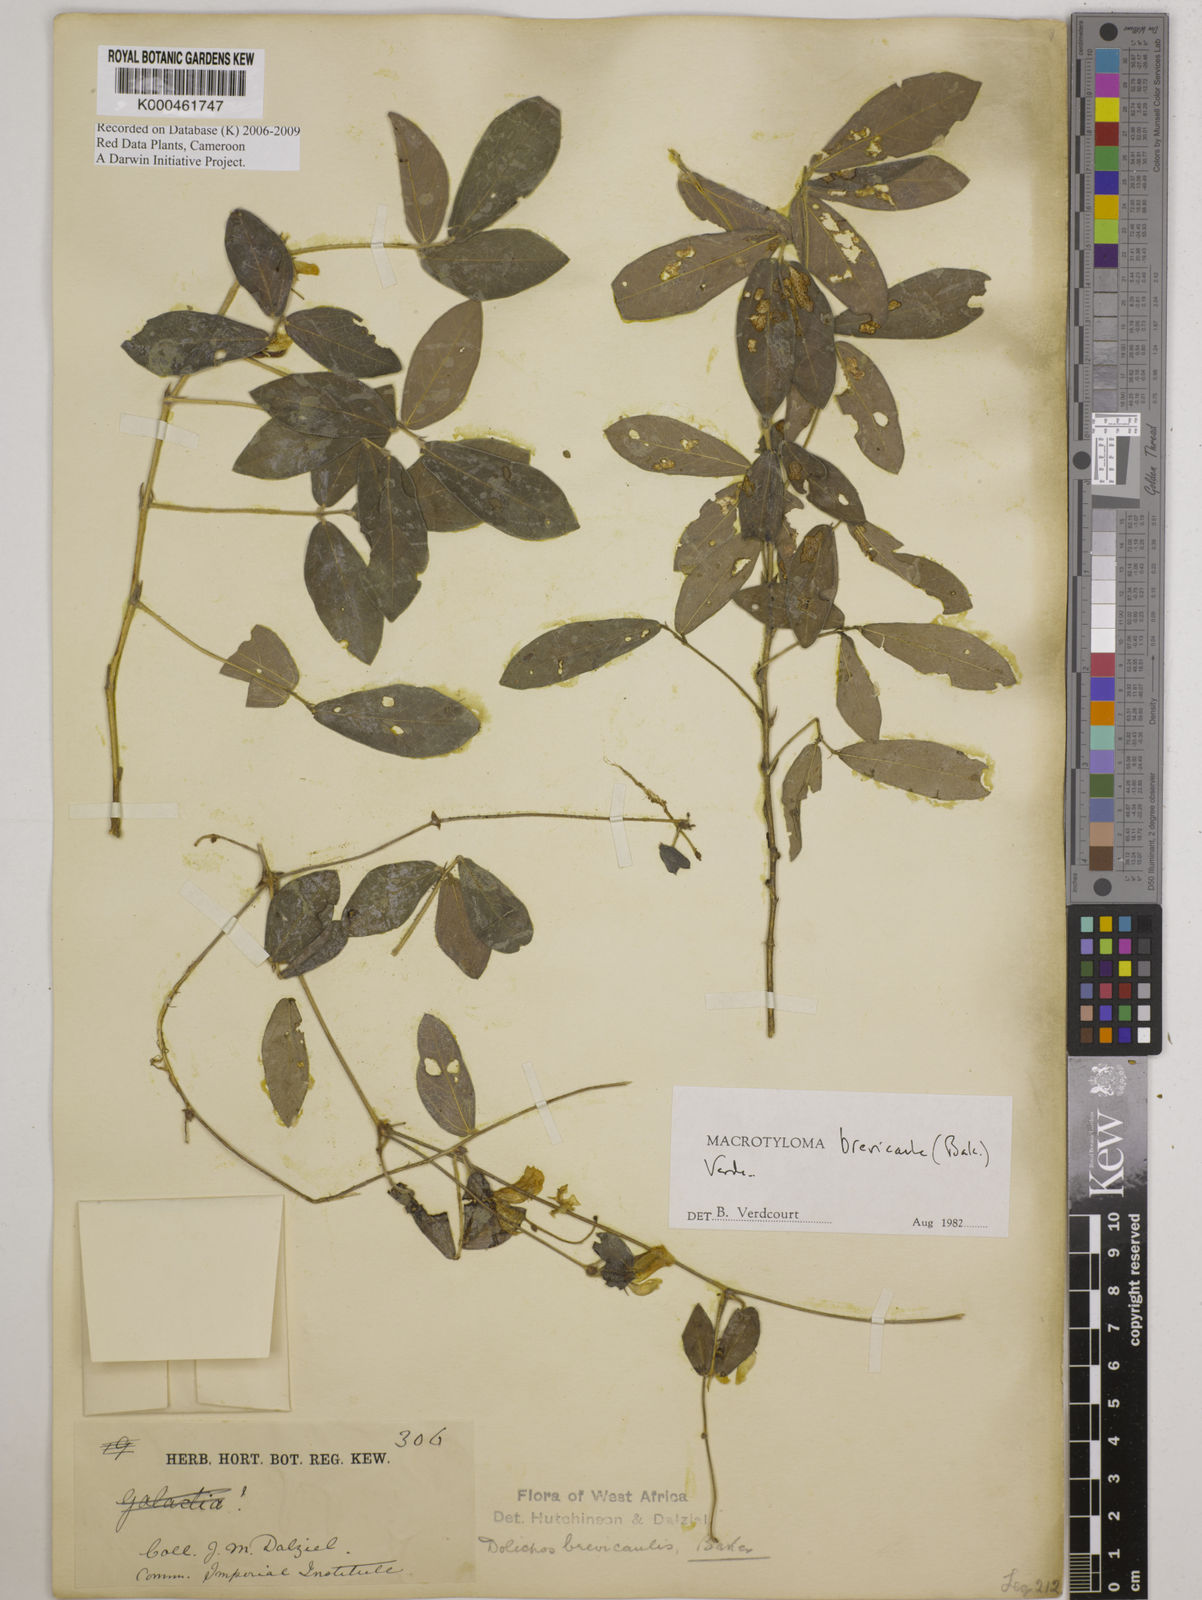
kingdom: Plantae
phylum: Tracheophyta
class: Magnoliopsida
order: Fabales
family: Fabaceae
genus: Macrotyloma
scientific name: Macrotyloma brevicaule
